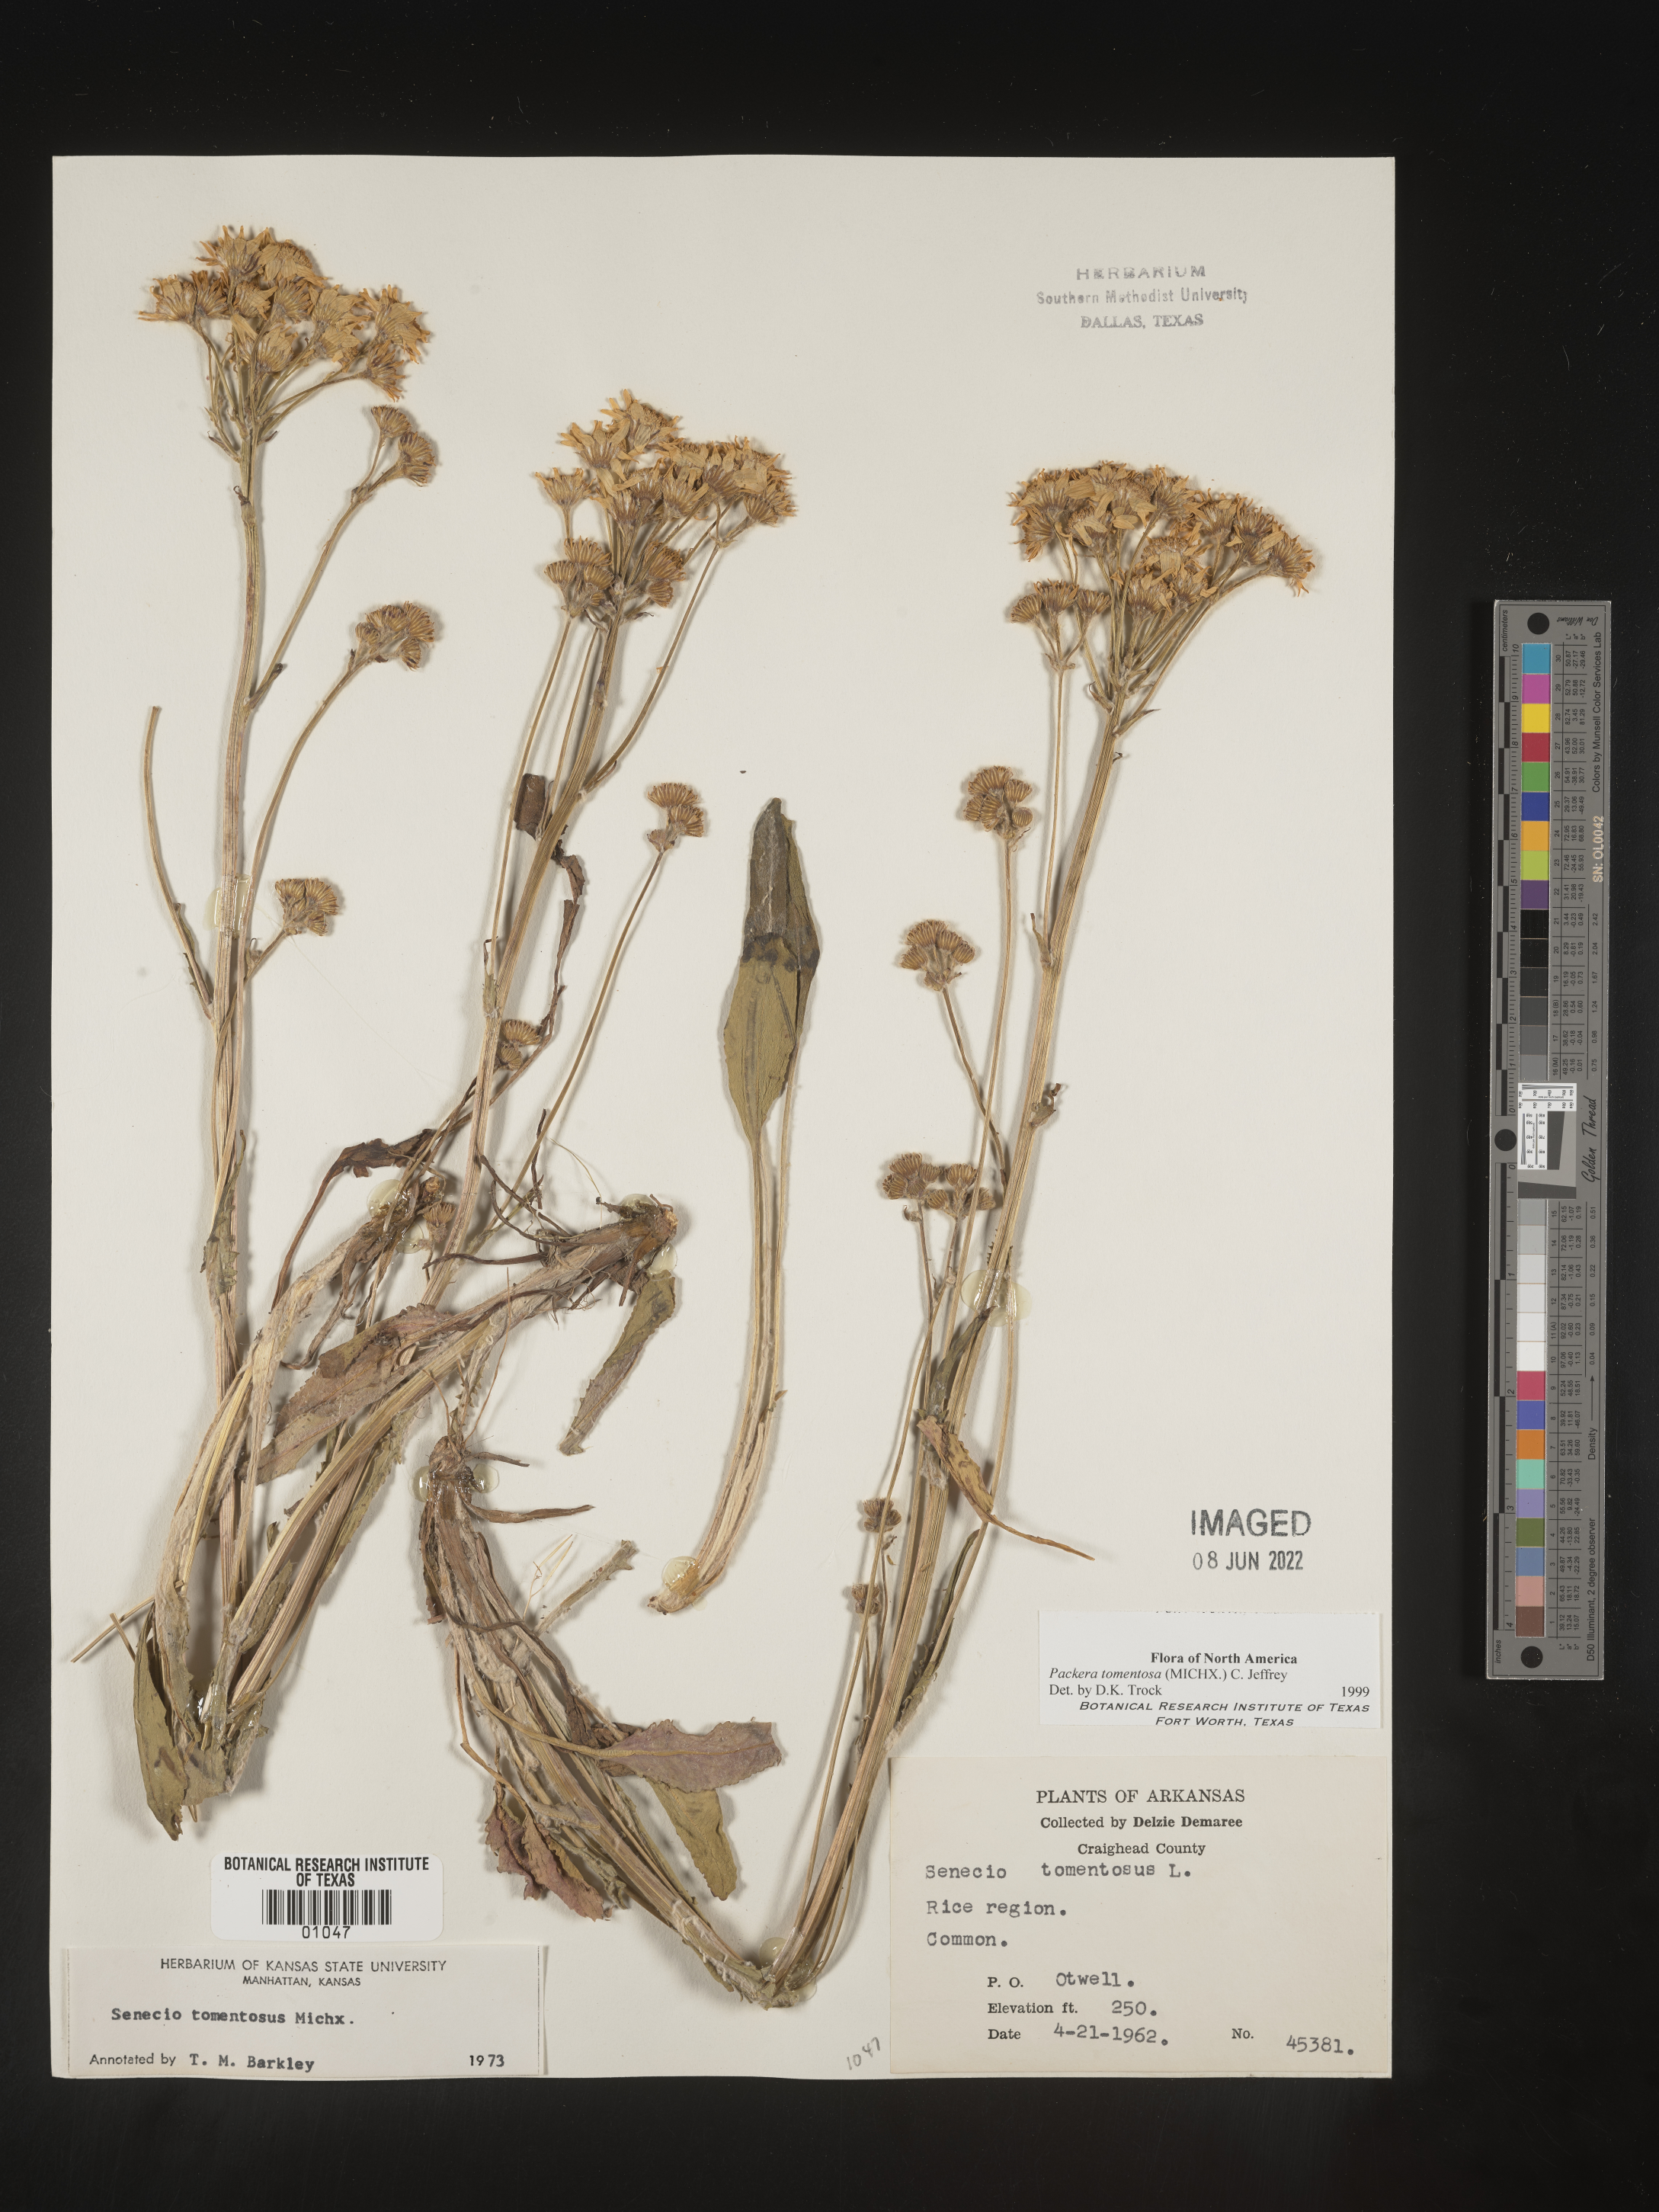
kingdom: Plantae
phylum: Tracheophyta
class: Magnoliopsida
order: Asterales
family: Asteraceae
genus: Packera
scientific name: Packera dubia
